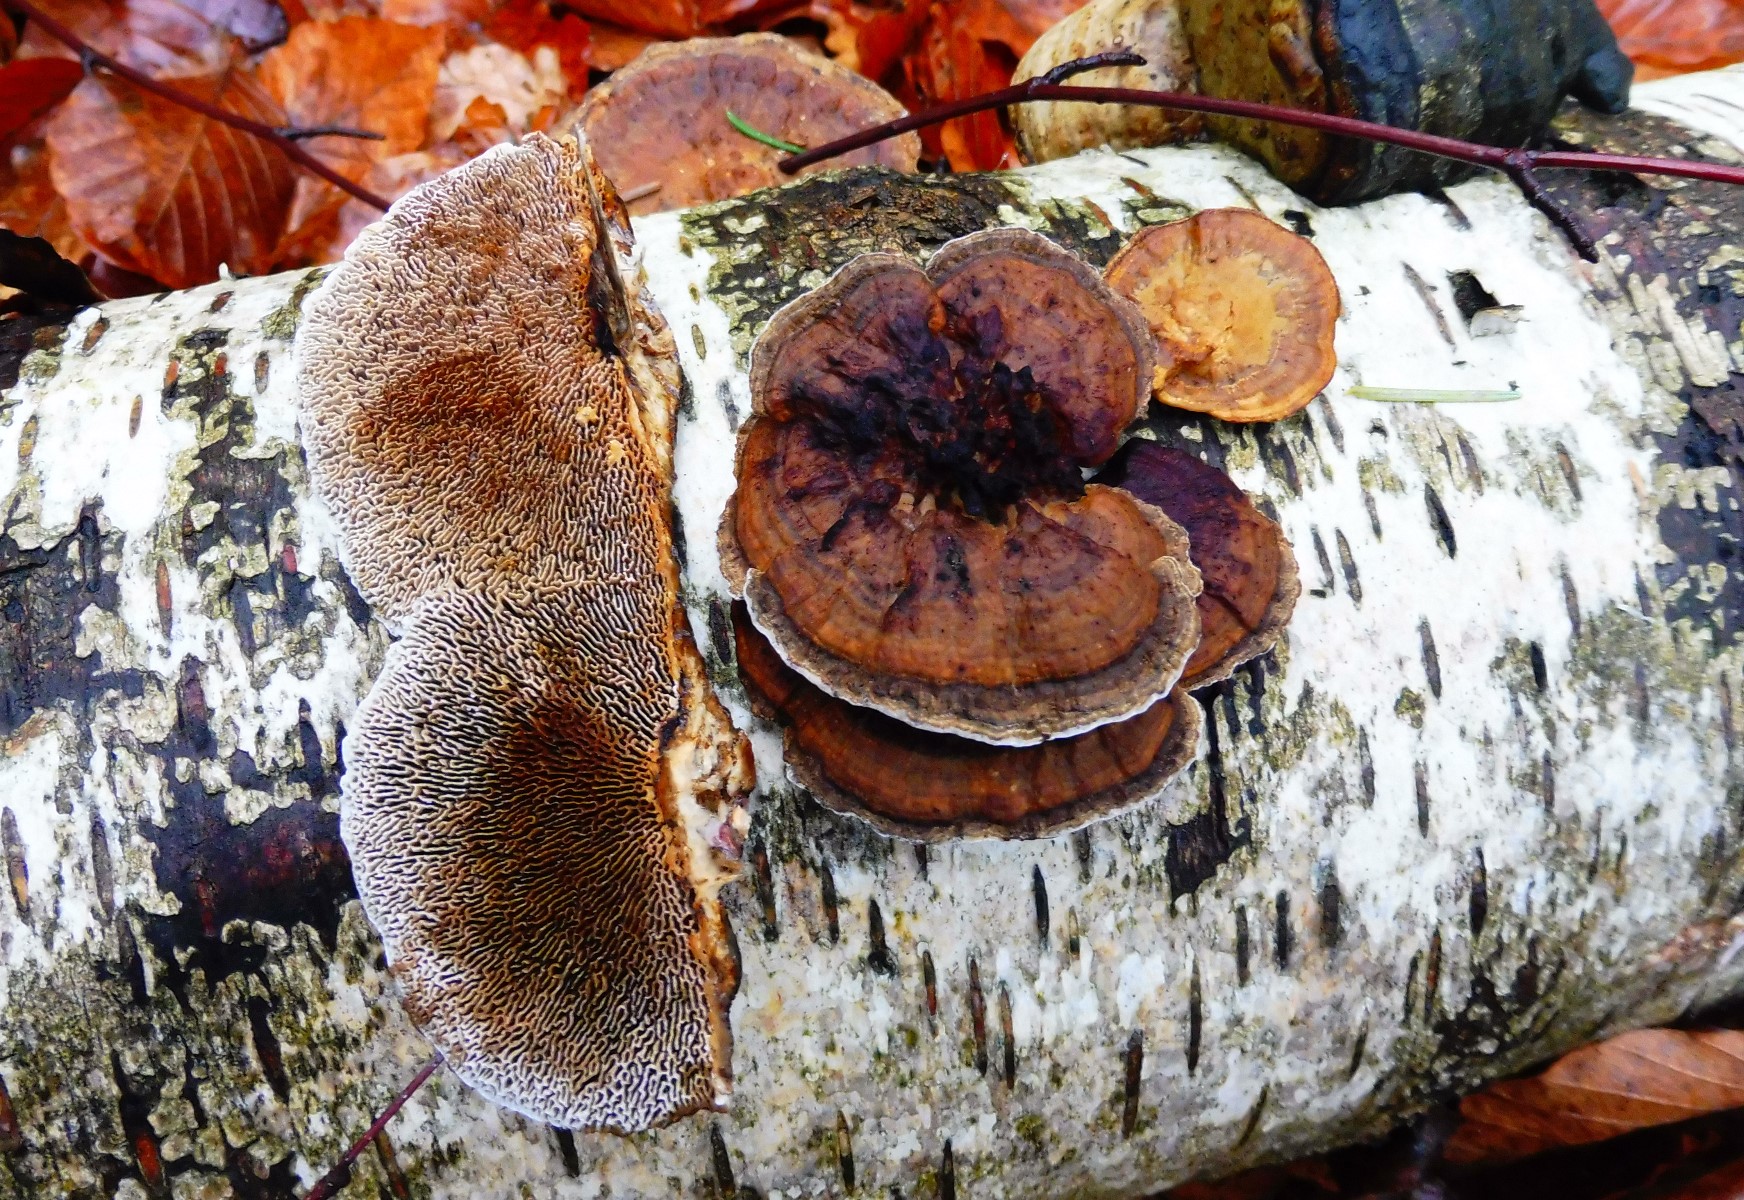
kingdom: Fungi
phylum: Basidiomycota
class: Agaricomycetes
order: Polyporales
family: Polyporaceae
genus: Daedaleopsis
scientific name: Daedaleopsis confragosa
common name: rødmende læderporesvamp
